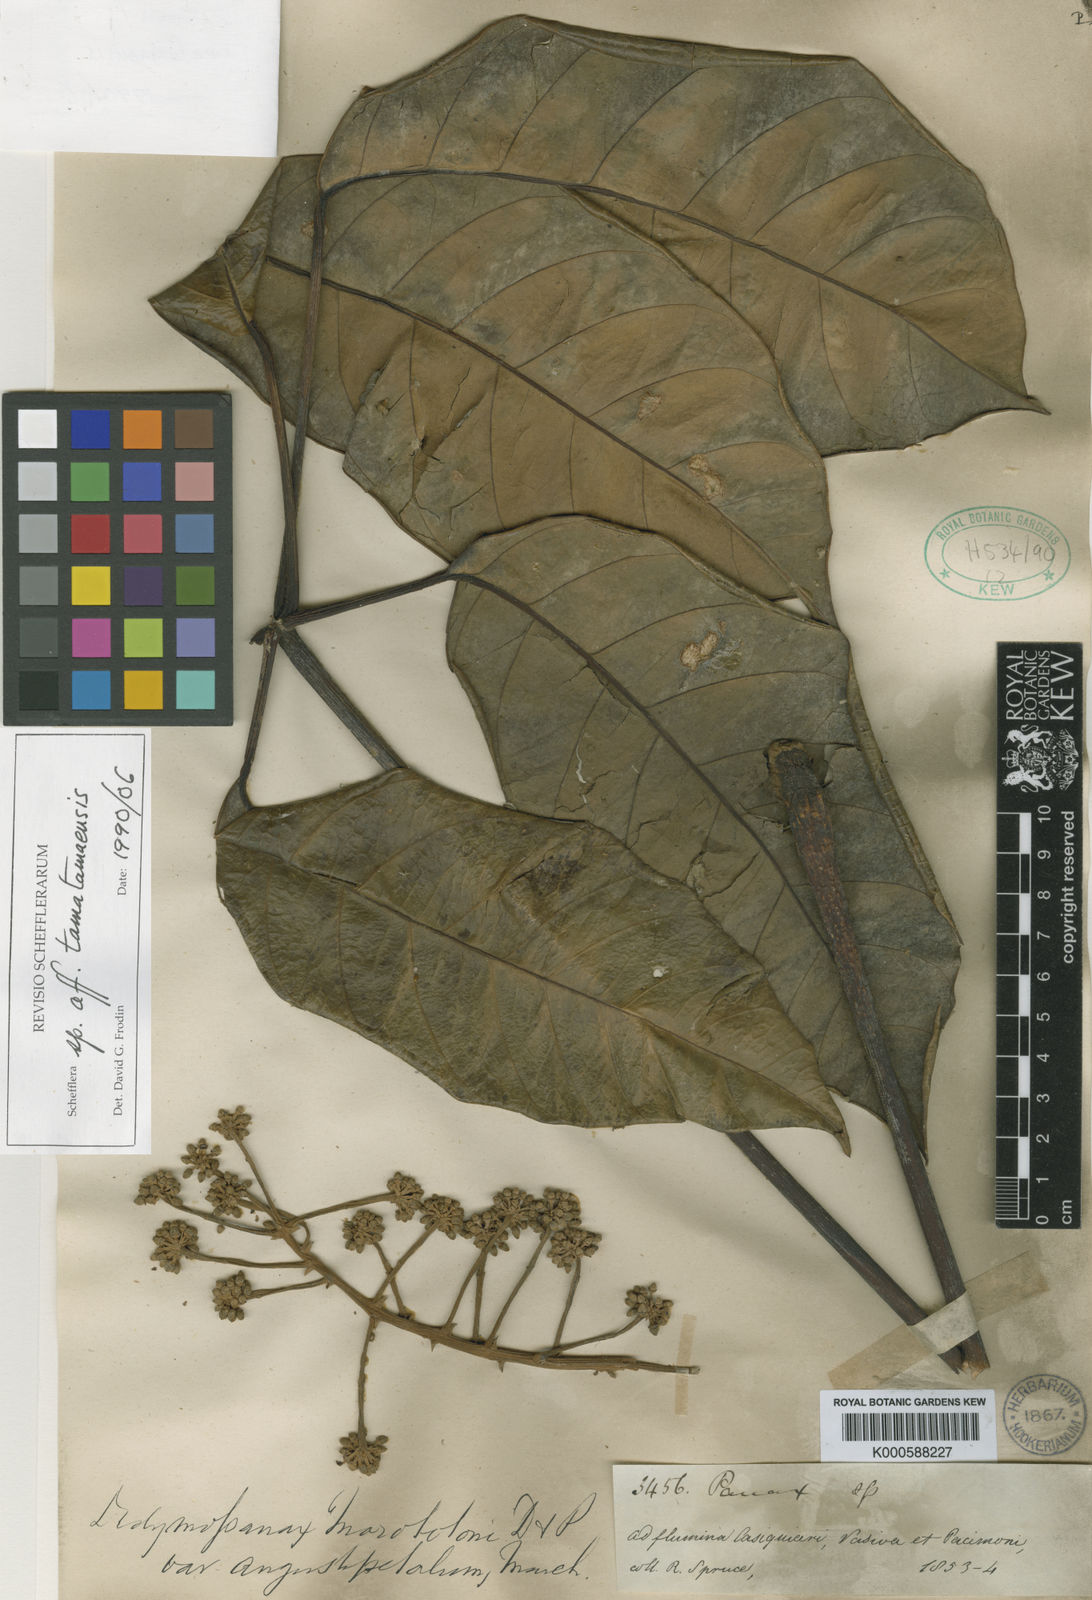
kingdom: Plantae
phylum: Tracheophyta
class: Magnoliopsida
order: Apiales
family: Araliaceae
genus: Didymopanax
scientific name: Didymopanax tamatamaensis
